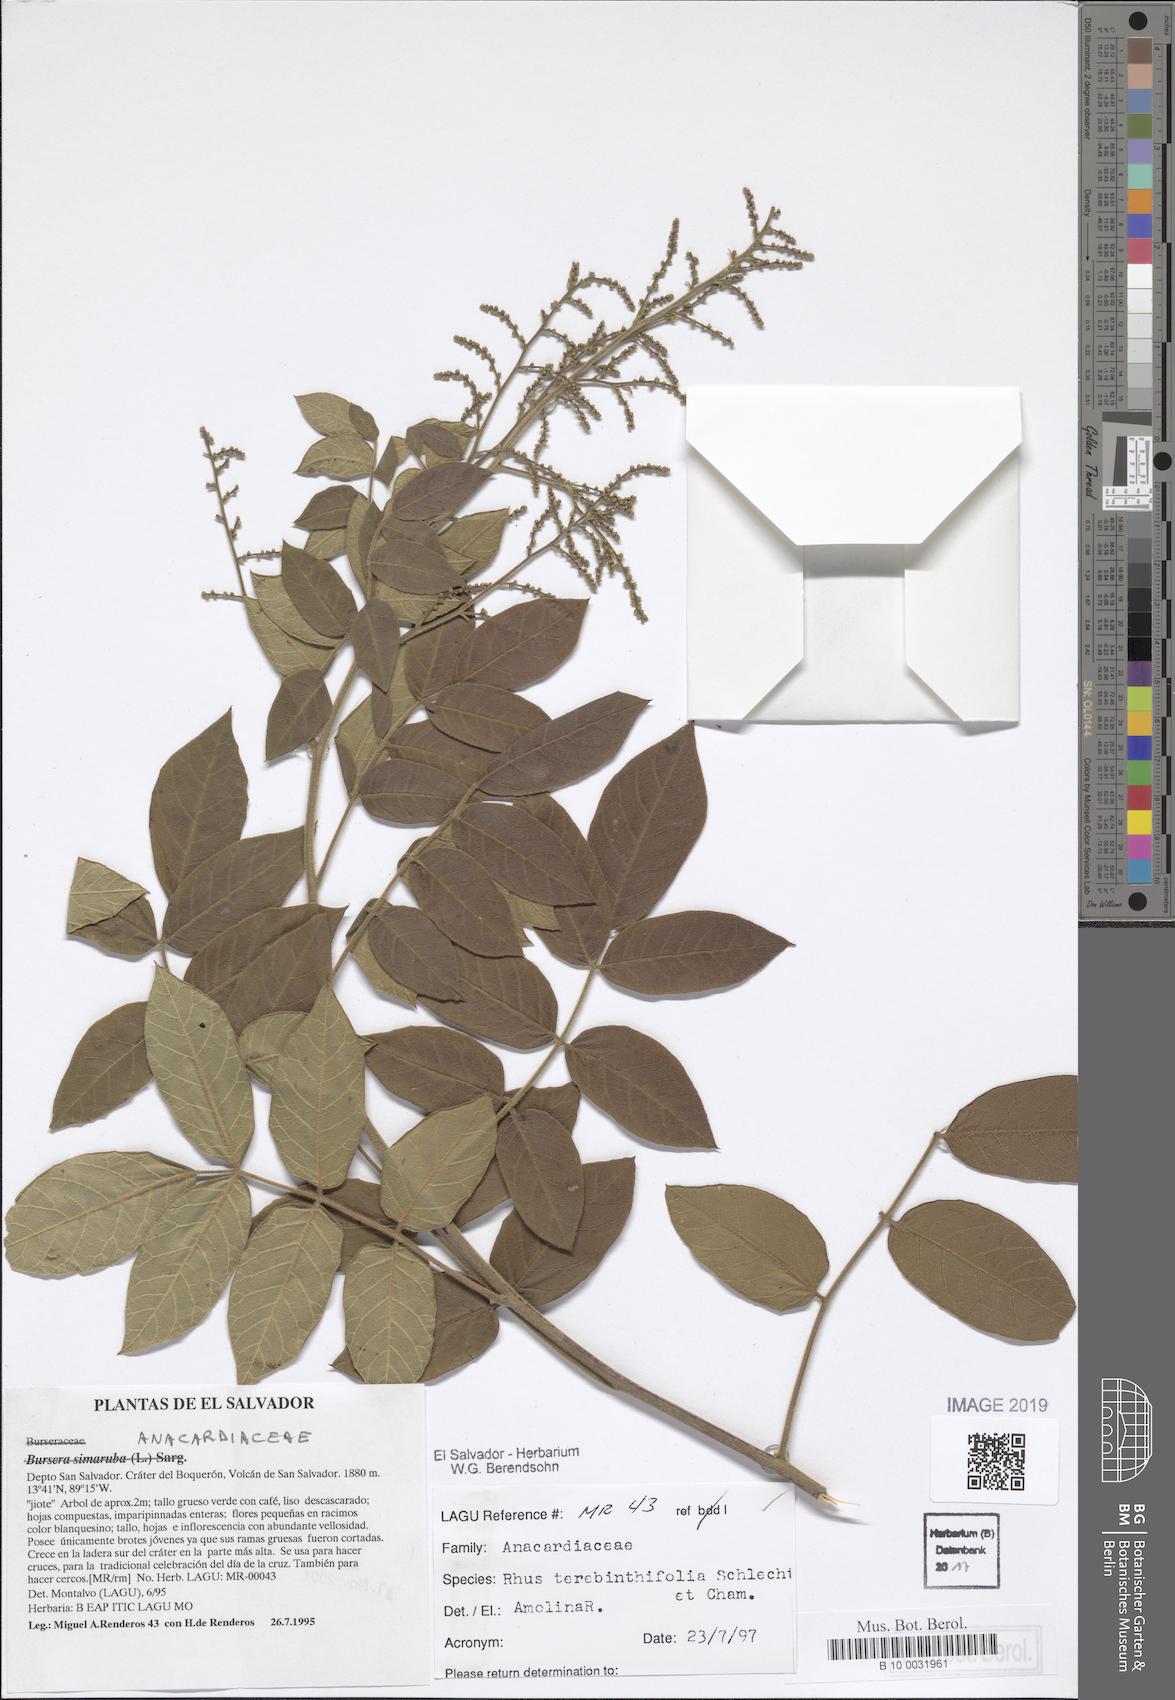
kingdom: Plantae
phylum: Tracheophyta
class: Magnoliopsida
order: Sapindales
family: Anacardiaceae
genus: Rhus
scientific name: Rhus terebinthifolia
